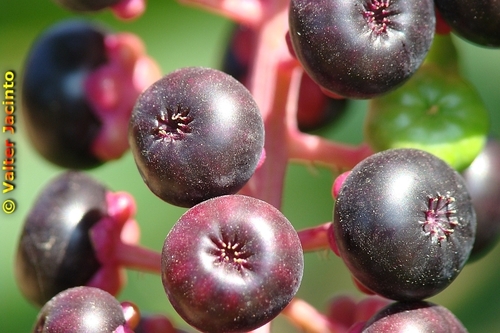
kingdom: Plantae
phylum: Tracheophyta
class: Magnoliopsida
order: Caryophyllales
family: Phytolaccaceae
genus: Phytolacca
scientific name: Phytolacca americana
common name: American pokeweed
